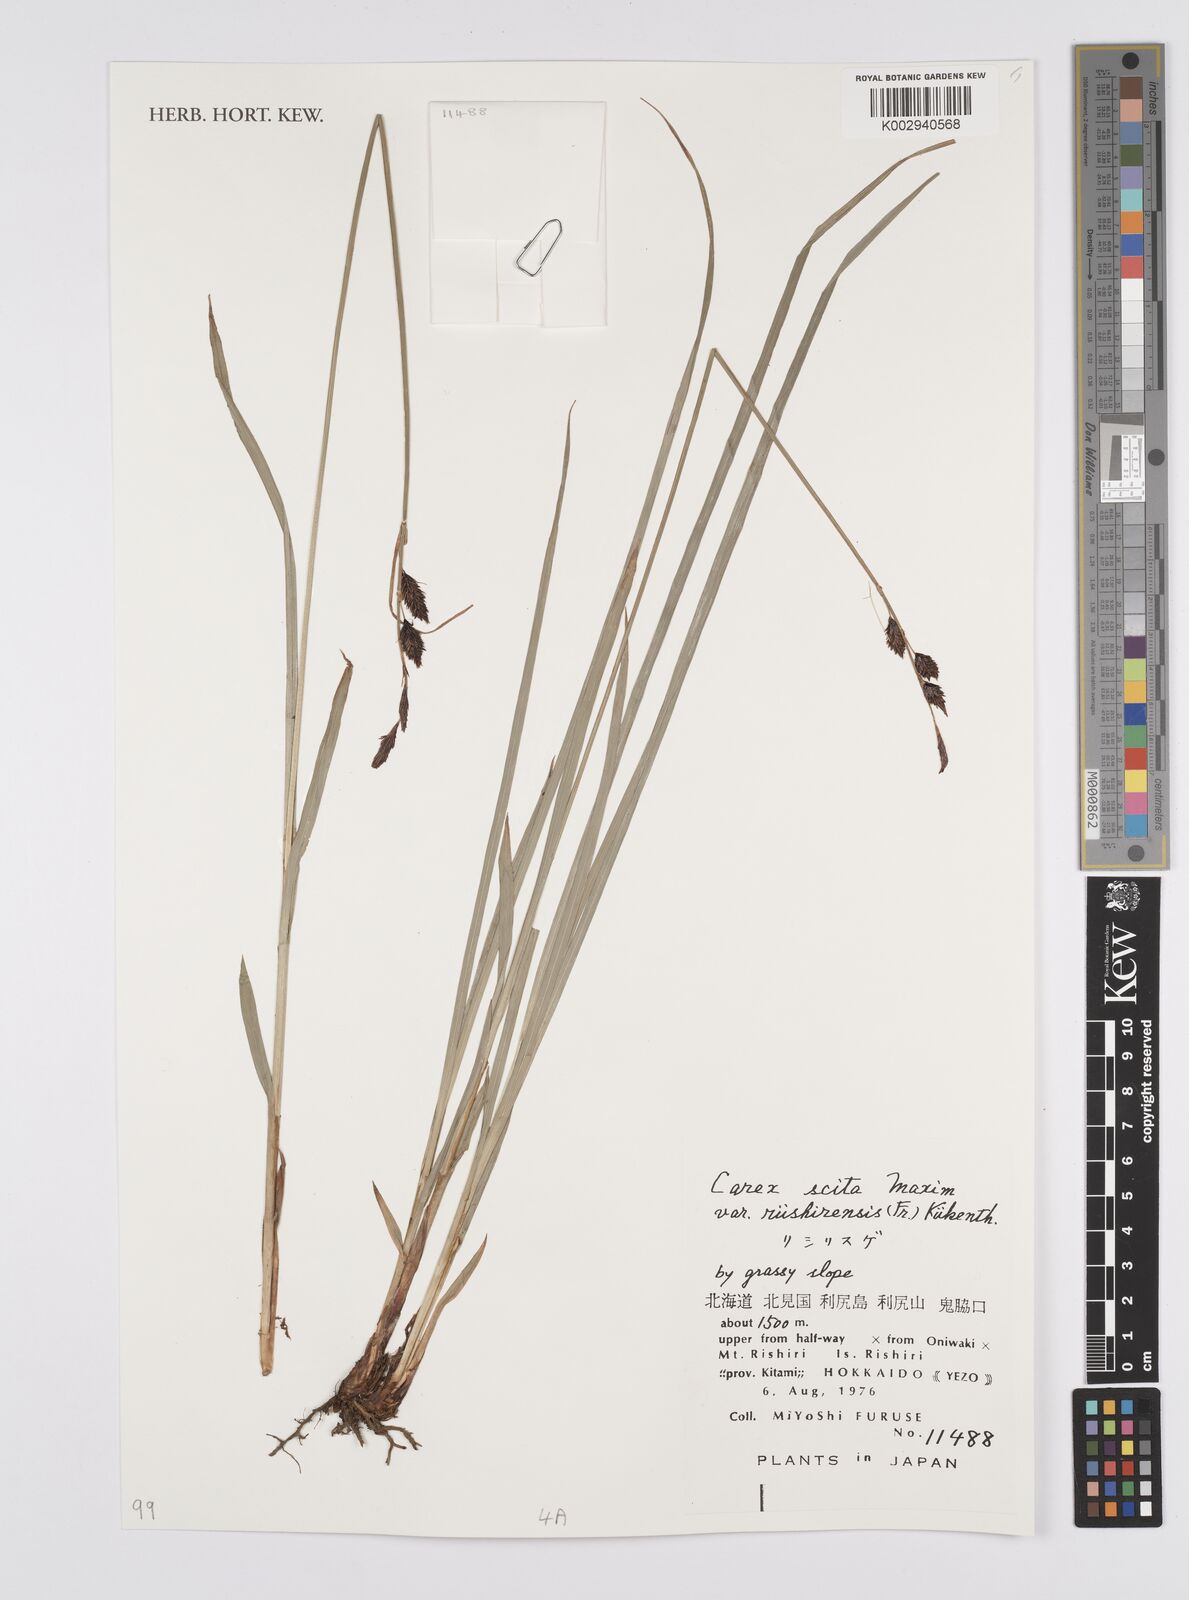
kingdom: Plantae
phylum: Tracheophyta
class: Liliopsida
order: Poales
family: Cyperaceae
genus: Carex
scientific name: Carex scita
